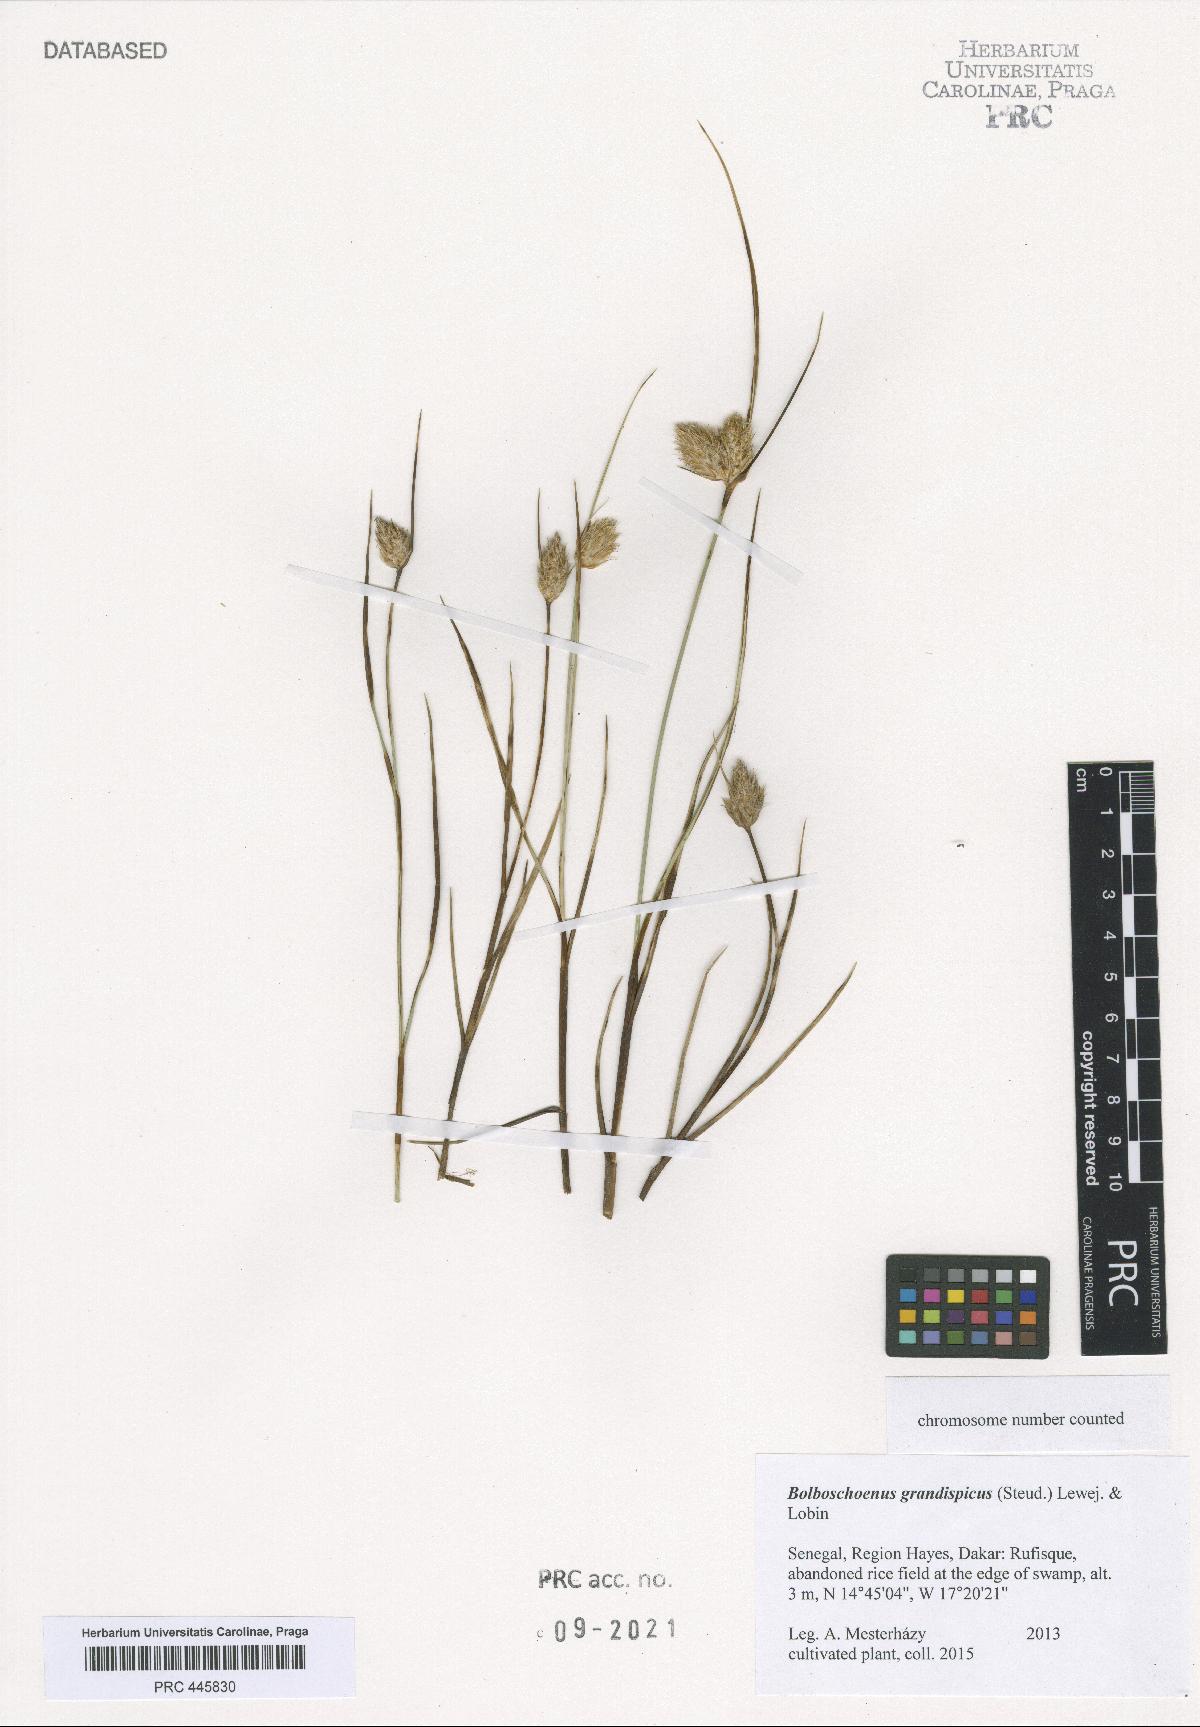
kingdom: Plantae
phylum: Tracheophyta
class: Liliopsida
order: Poales
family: Cyperaceae
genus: Bolboschoenus
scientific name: Bolboschoenus grandispicus
